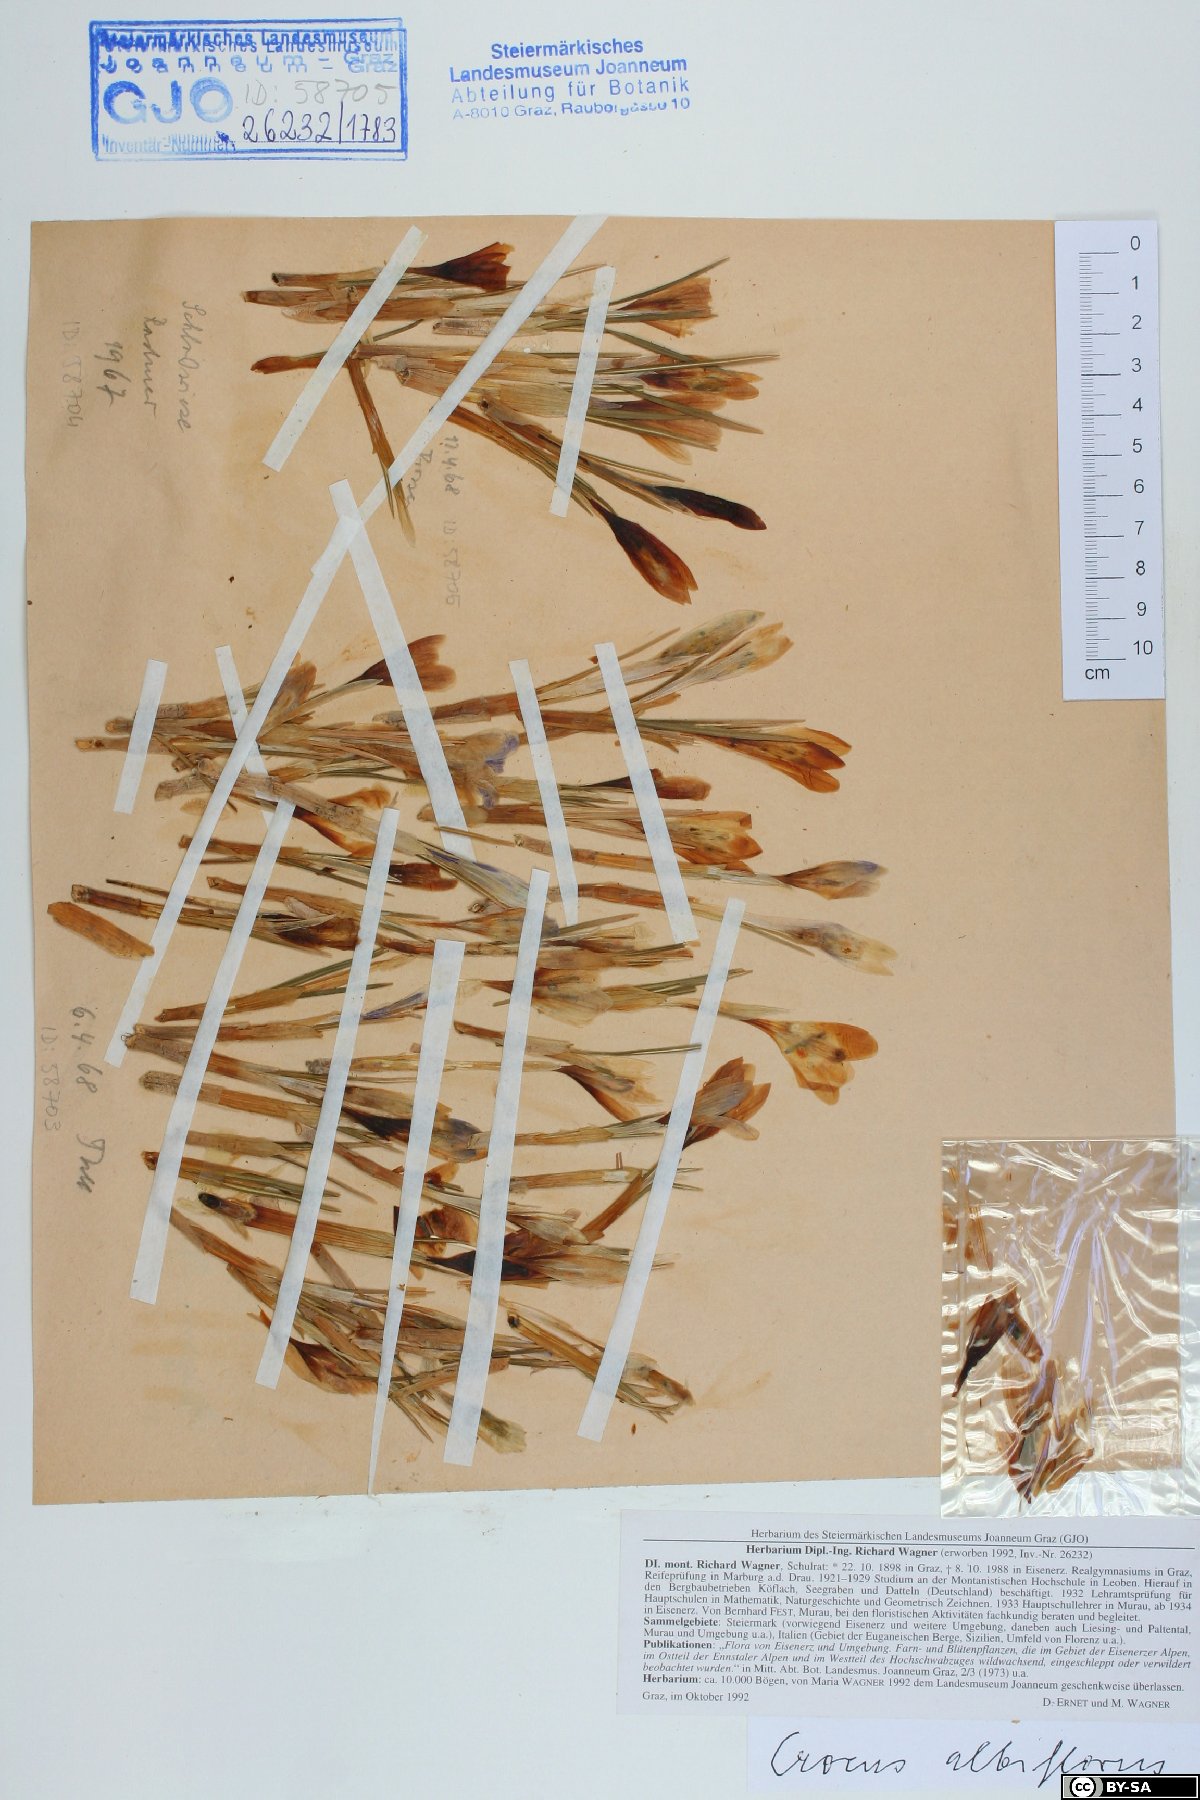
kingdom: Plantae
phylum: Tracheophyta
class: Liliopsida
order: Asparagales
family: Iridaceae
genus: Crocus
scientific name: Crocus vernus
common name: Spring crocus
